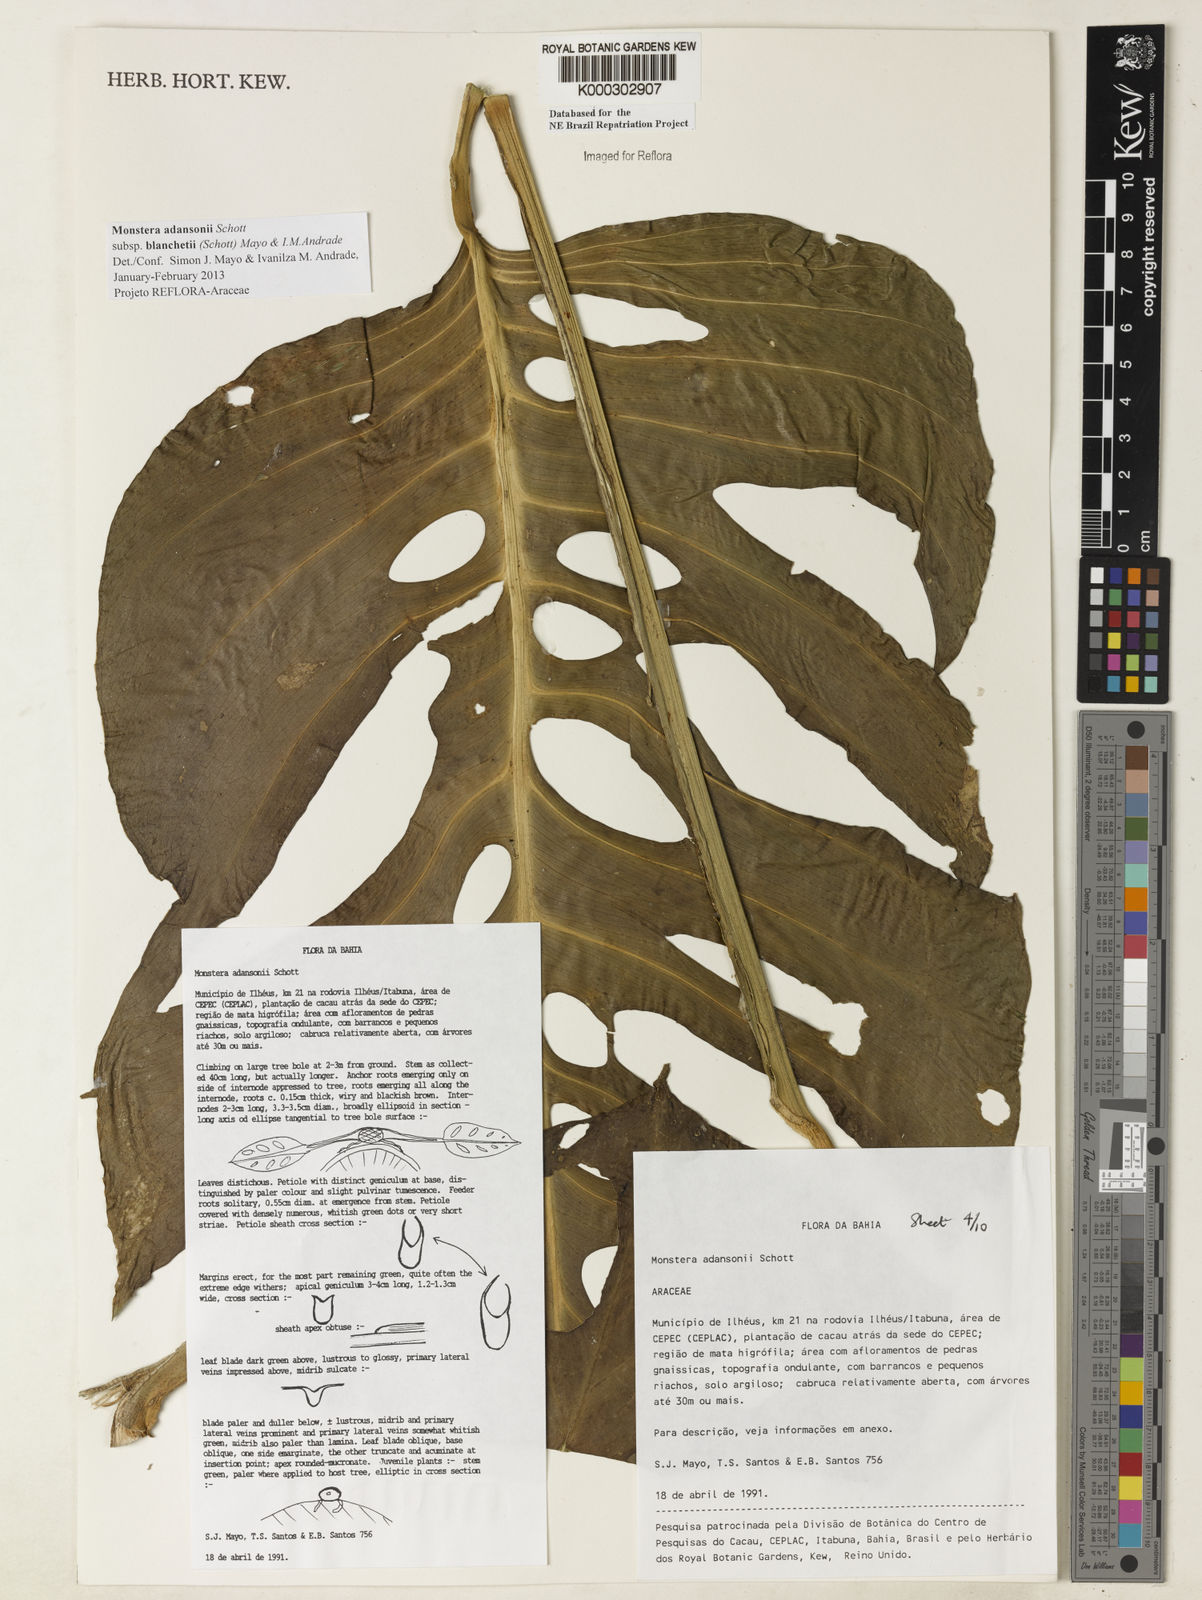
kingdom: Plantae
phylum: Tracheophyta
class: Liliopsida
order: Alismatales
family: Araceae
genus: Monstera
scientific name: Monstera adansonii
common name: Tarovine
